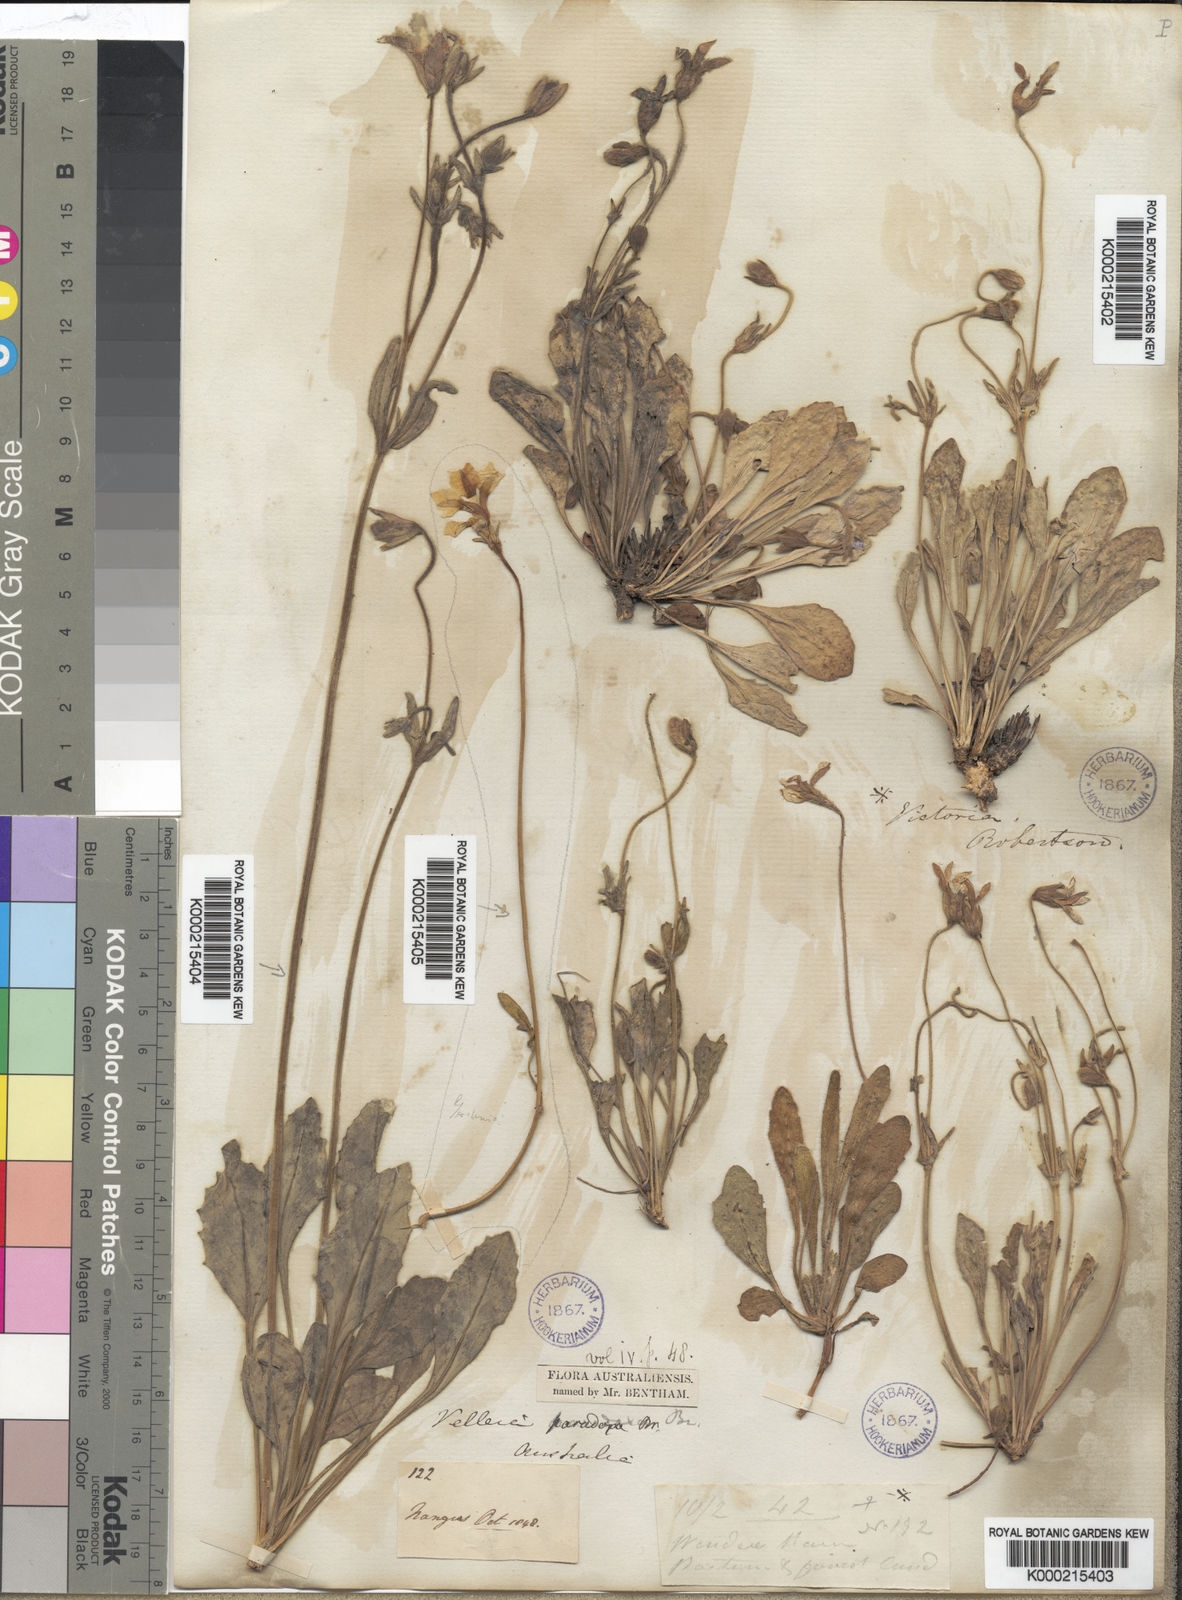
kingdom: Plantae
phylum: Tracheophyta
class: Magnoliopsida
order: Asterales
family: Goodeniaceae
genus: Goodenia
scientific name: Goodenia paradoxa
